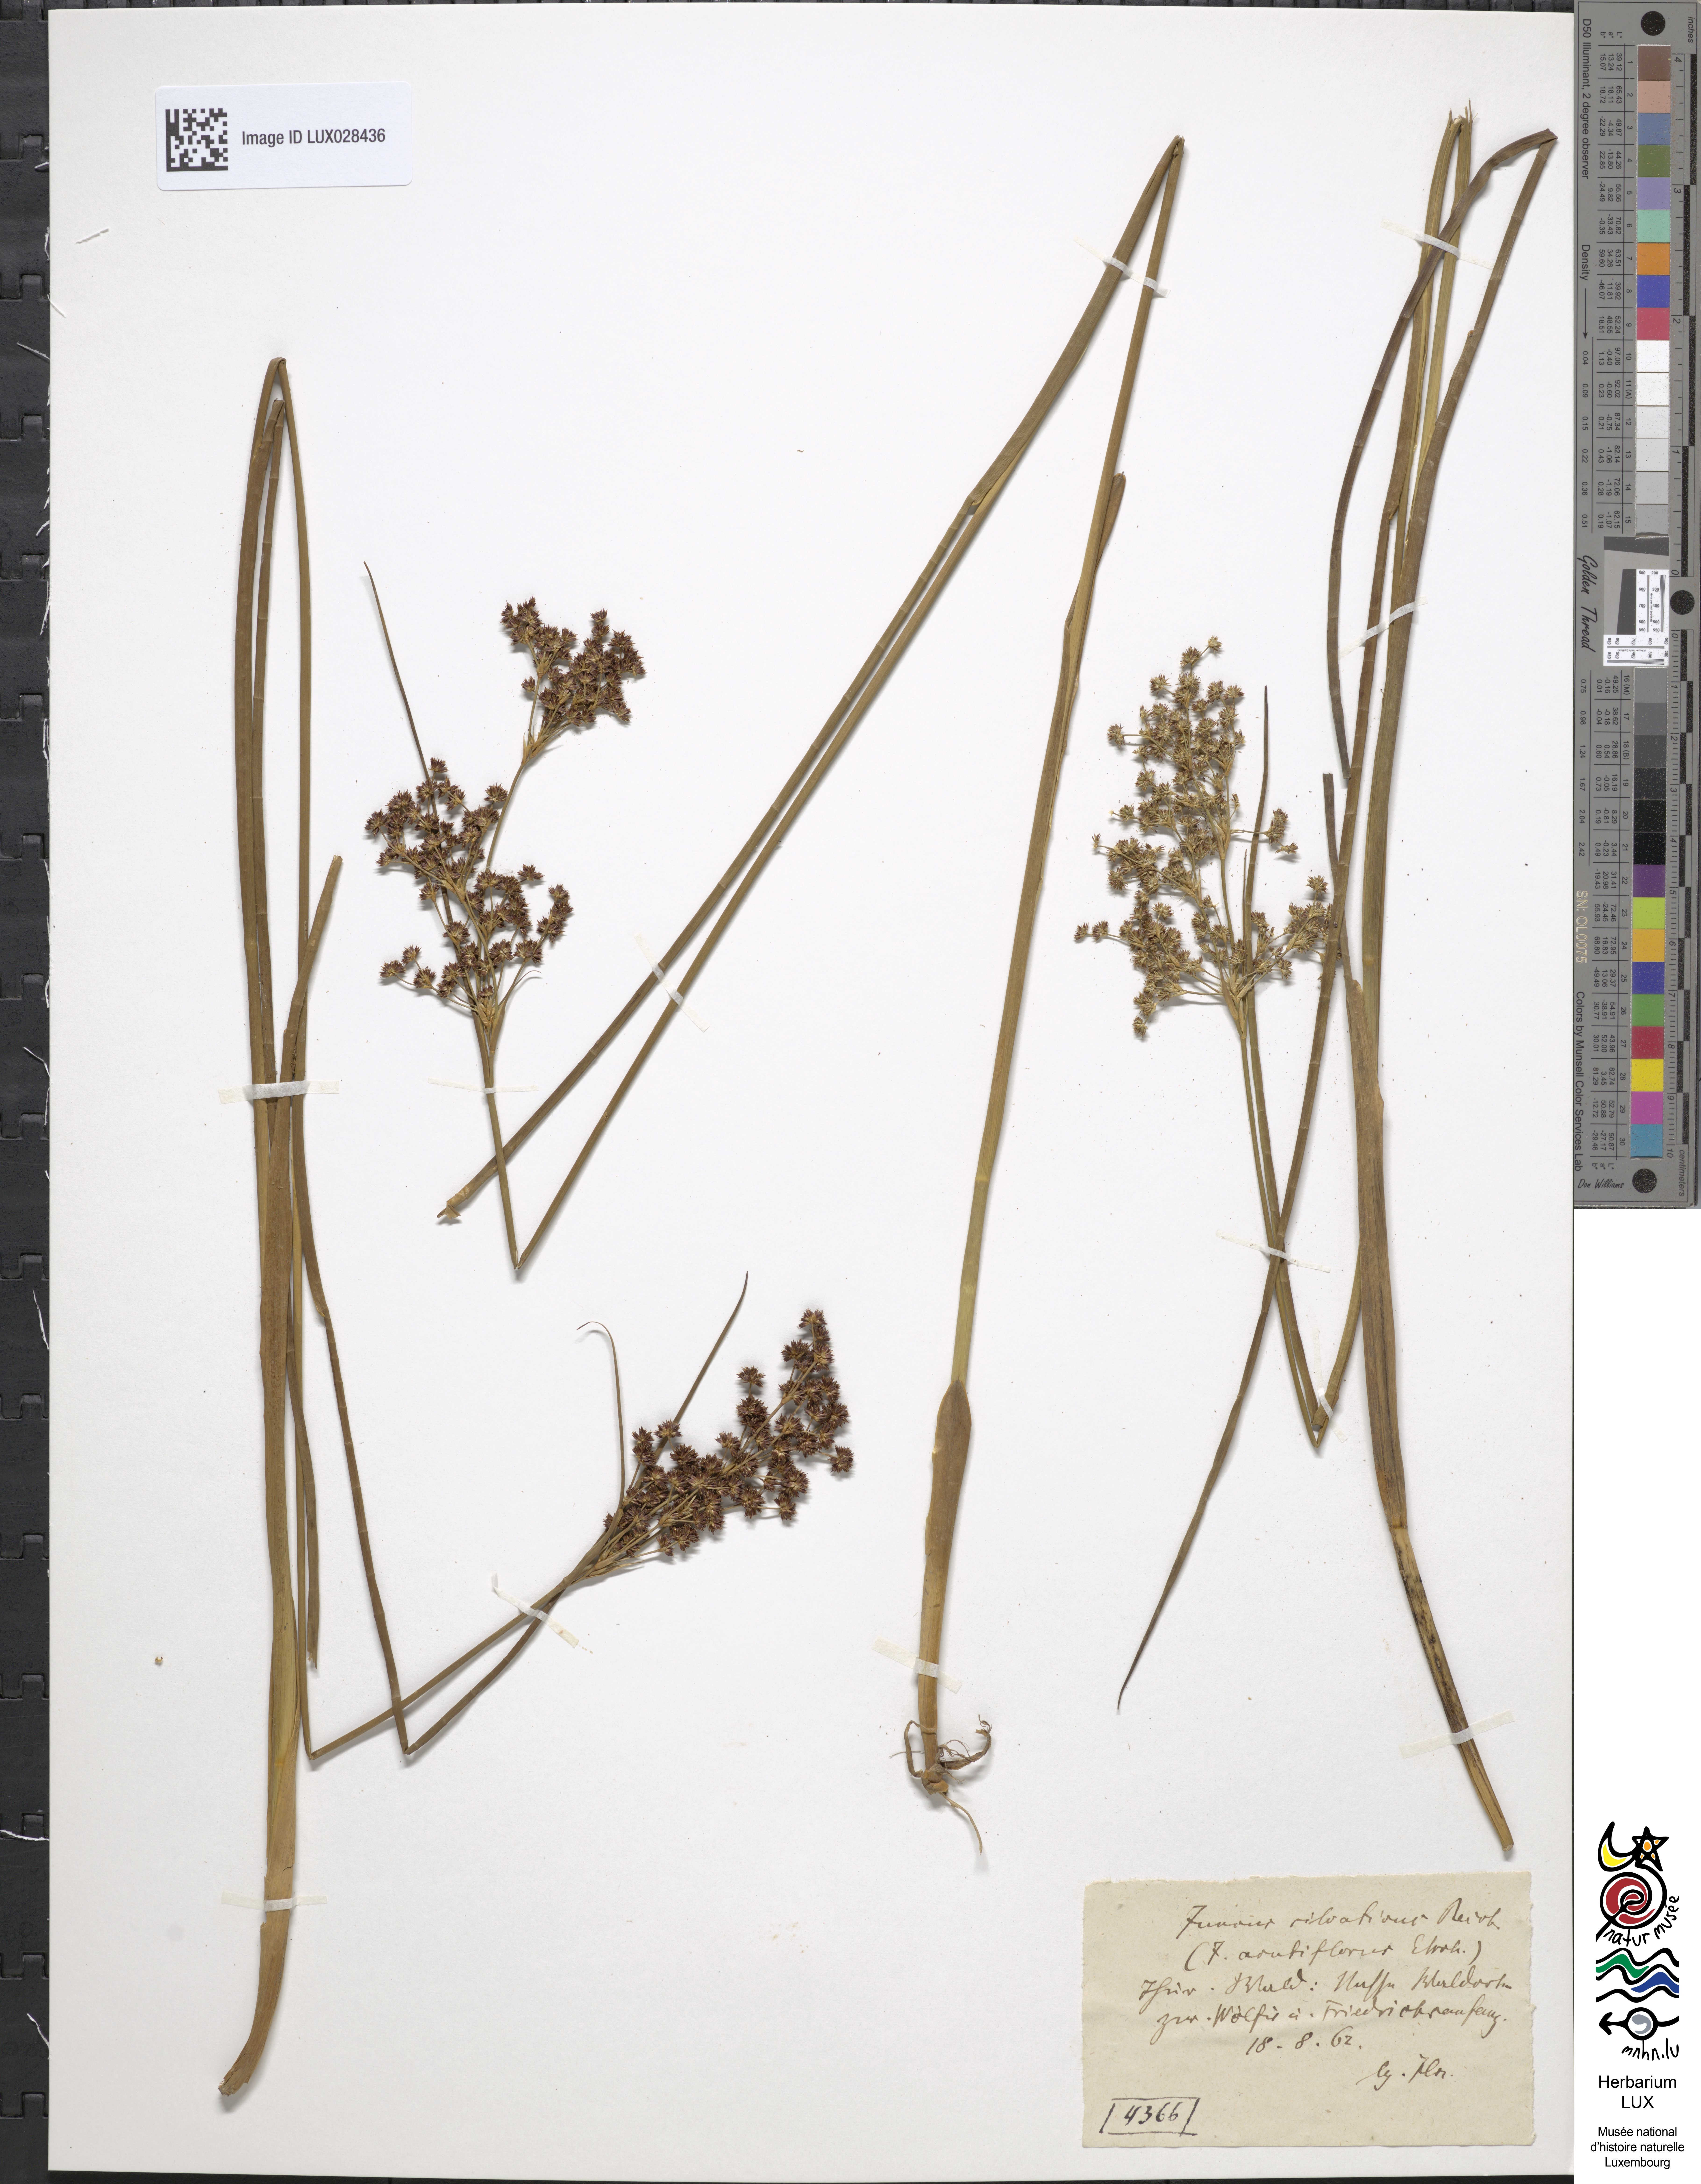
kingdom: Plantae
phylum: Tracheophyta
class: Liliopsida
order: Poales
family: Juncaceae
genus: Juncus
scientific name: Juncus acutiflorus
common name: Sharp-flowered rush
